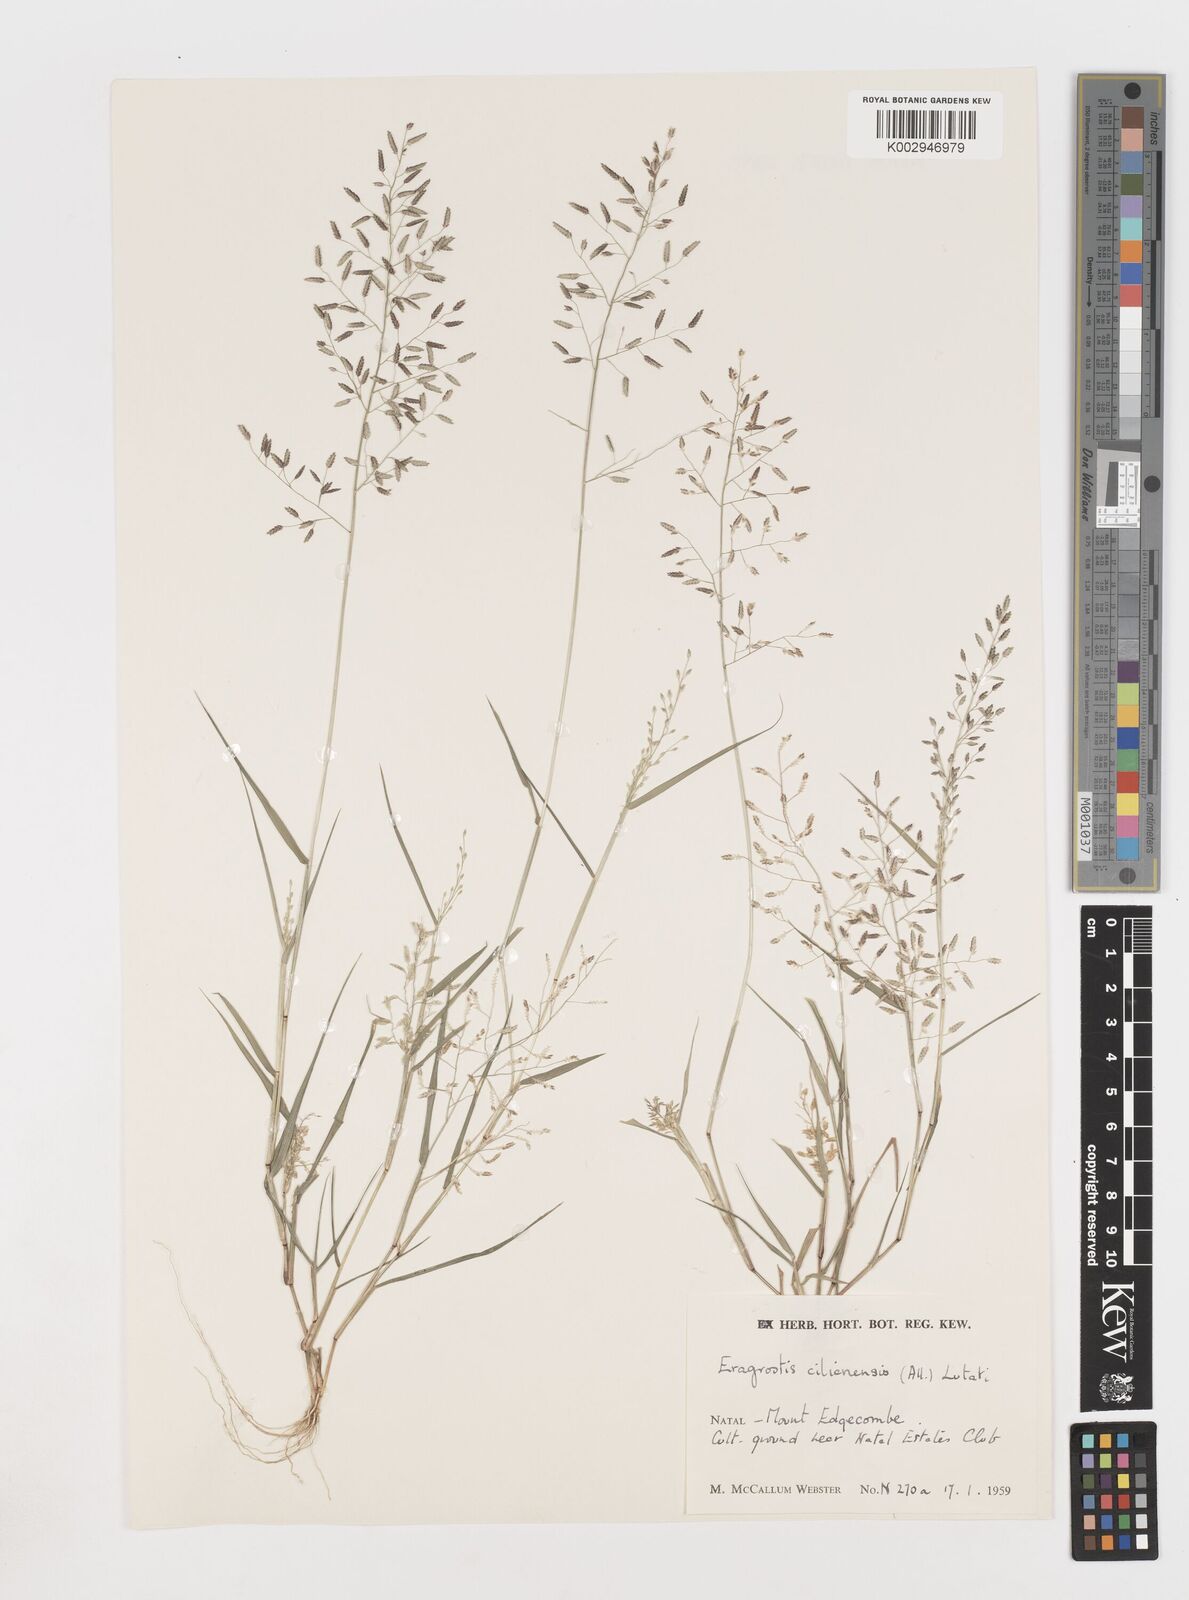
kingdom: Plantae
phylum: Tracheophyta
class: Liliopsida
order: Poales
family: Poaceae
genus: Eragrostis
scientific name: Eragrostis minor
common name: Small love-grass
